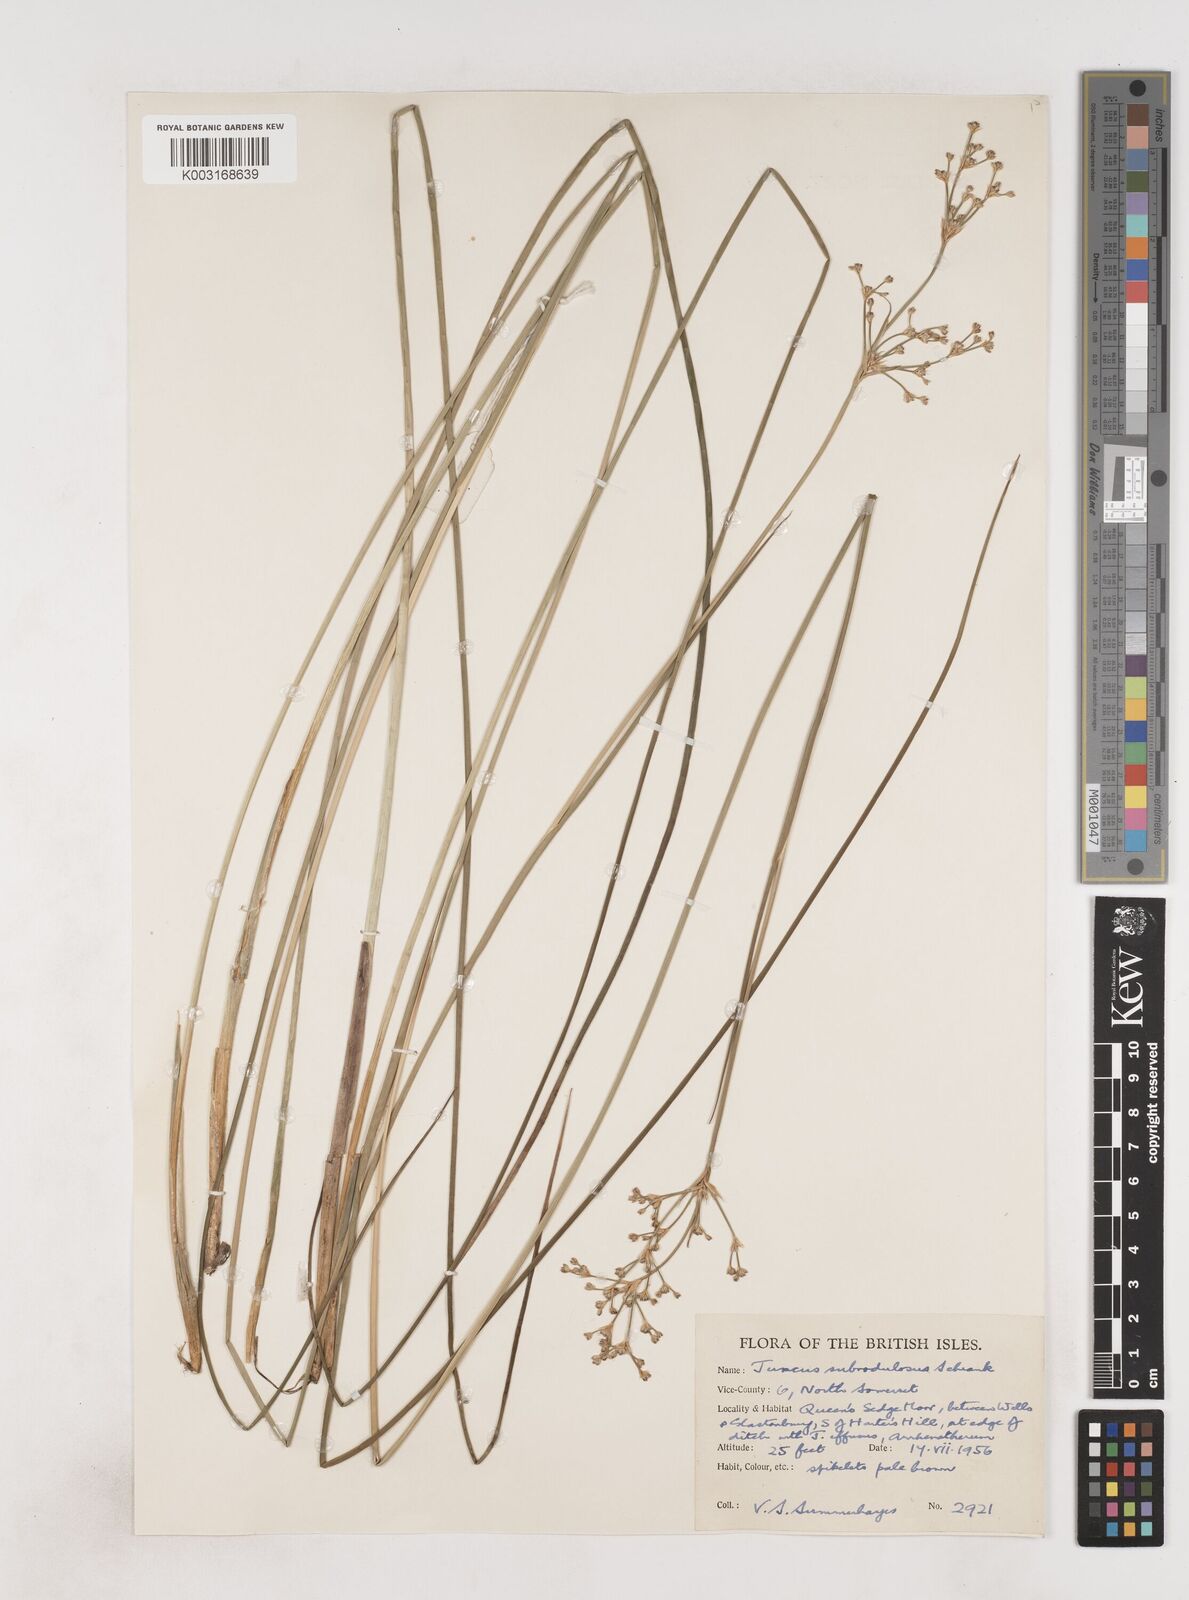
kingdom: Plantae
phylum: Tracheophyta
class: Liliopsida
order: Poales
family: Juncaceae
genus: Juncus
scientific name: Juncus subnodulosus
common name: Blunt-flowered rush
